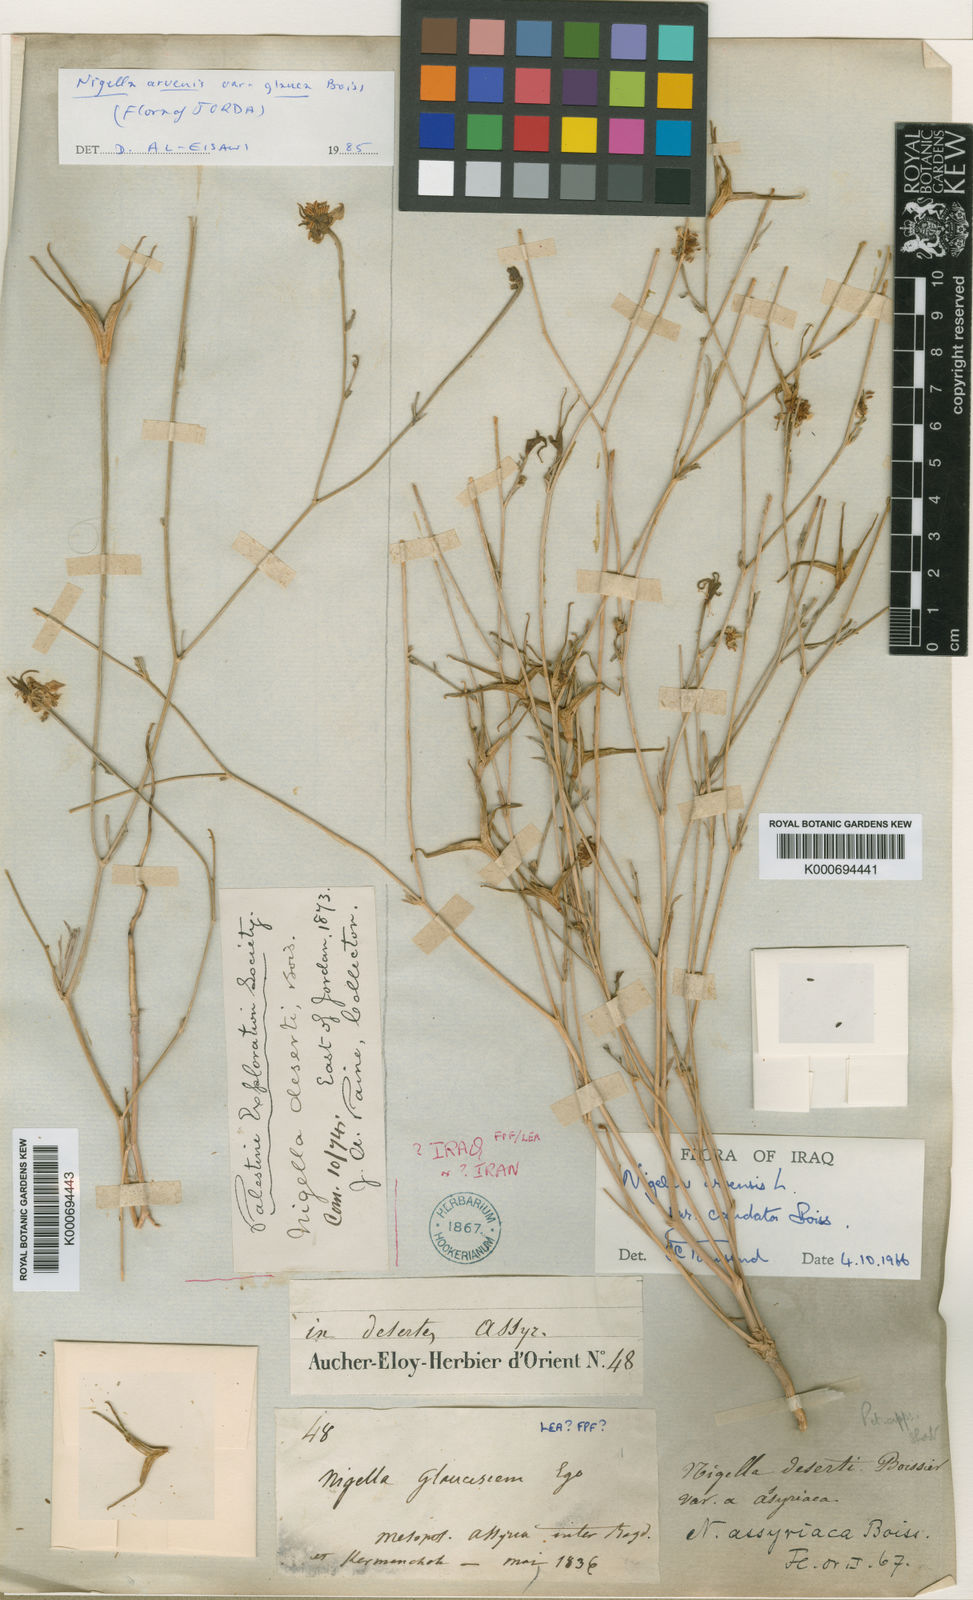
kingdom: Plantae
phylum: Tracheophyta
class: Magnoliopsida
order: Ranunculales
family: Ranunculaceae
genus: Nigella
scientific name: Nigella arvensis
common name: Wild fennel-flower
